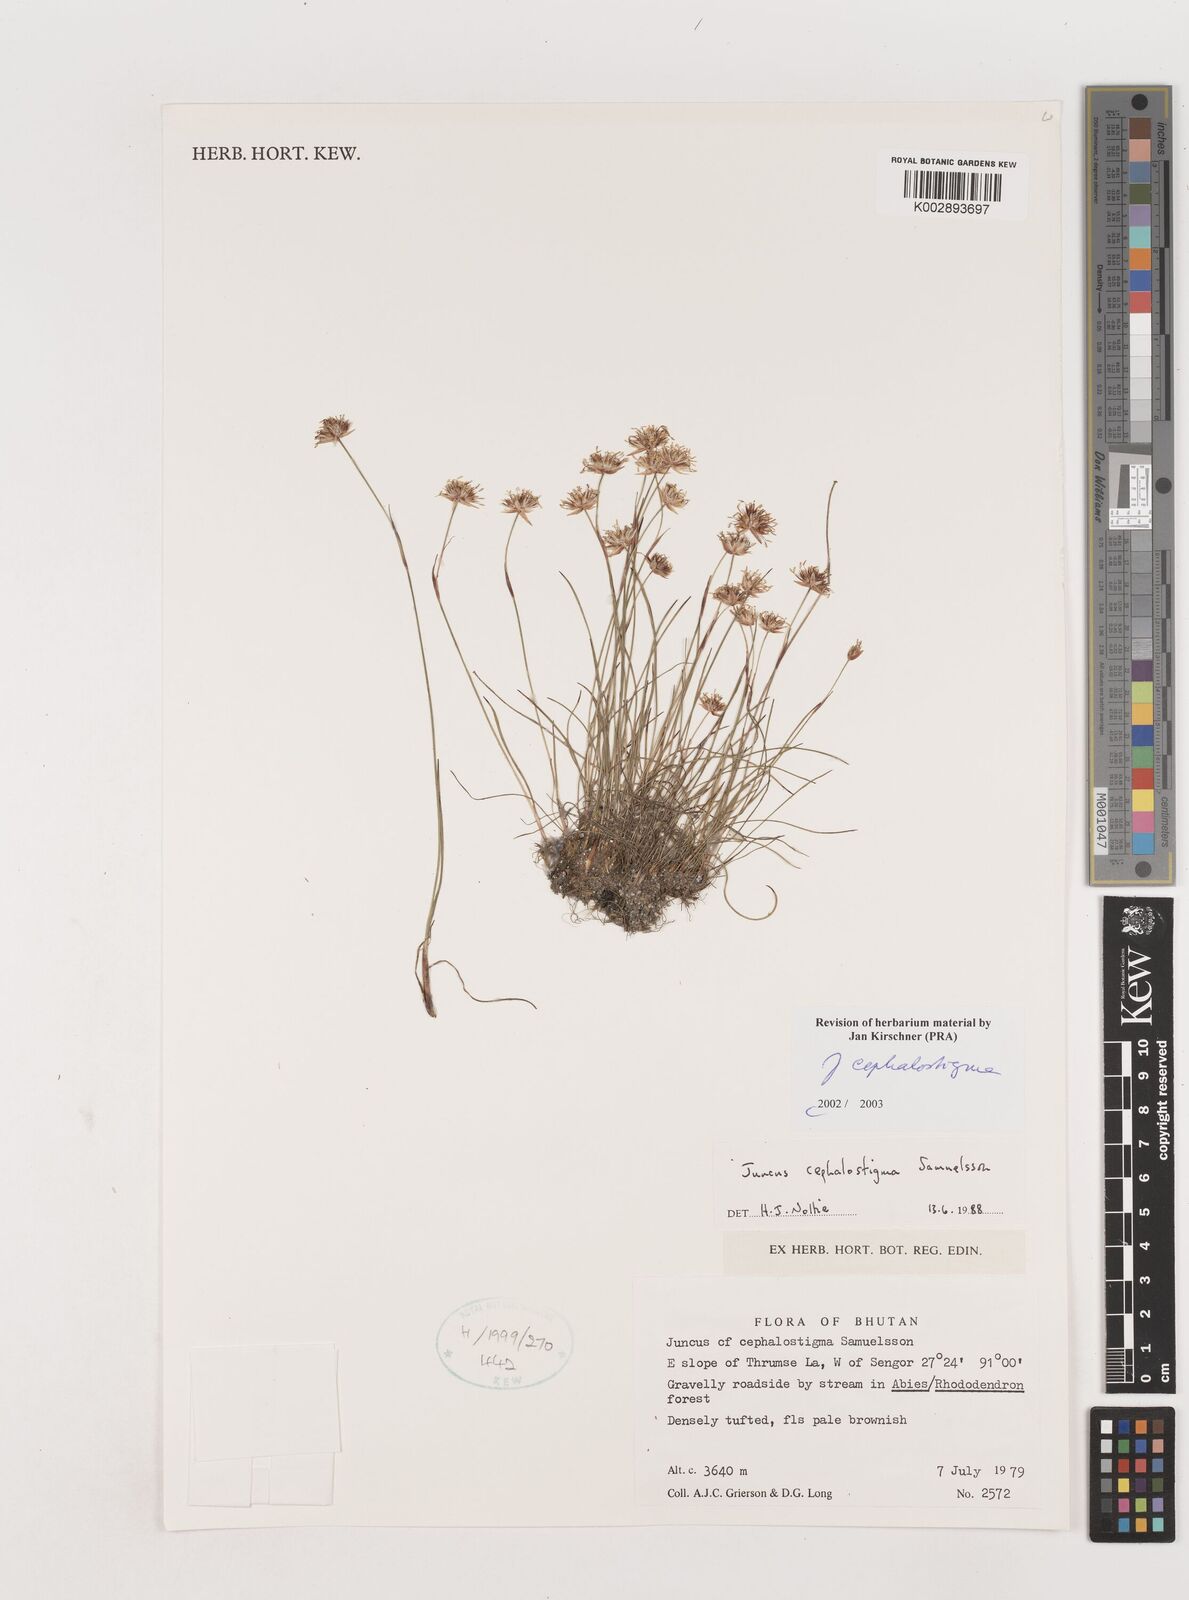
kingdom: Plantae
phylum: Tracheophyta
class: Liliopsida
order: Poales
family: Juncaceae
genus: Juncus
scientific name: Juncus cephalostigma
